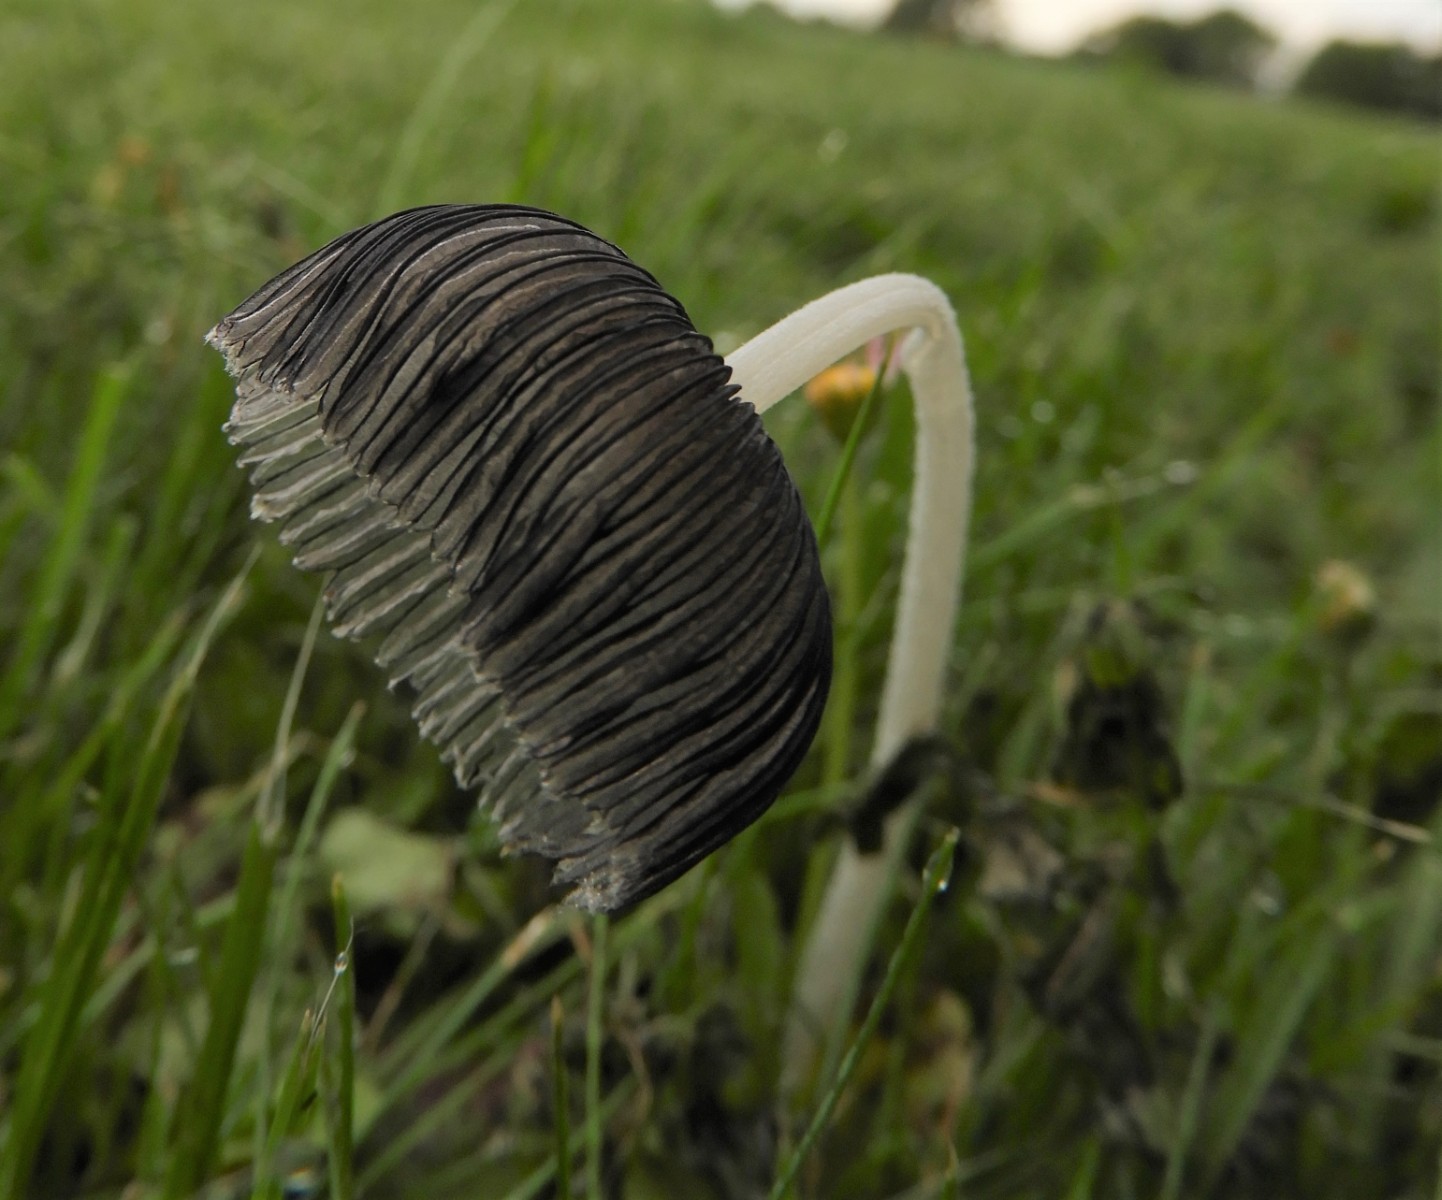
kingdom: Fungi
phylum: Basidiomycota
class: Agaricomycetes
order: Agaricales
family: Psathyrellaceae
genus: Coprinopsis
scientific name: Coprinopsis lagopus
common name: dunstokket blækhat
